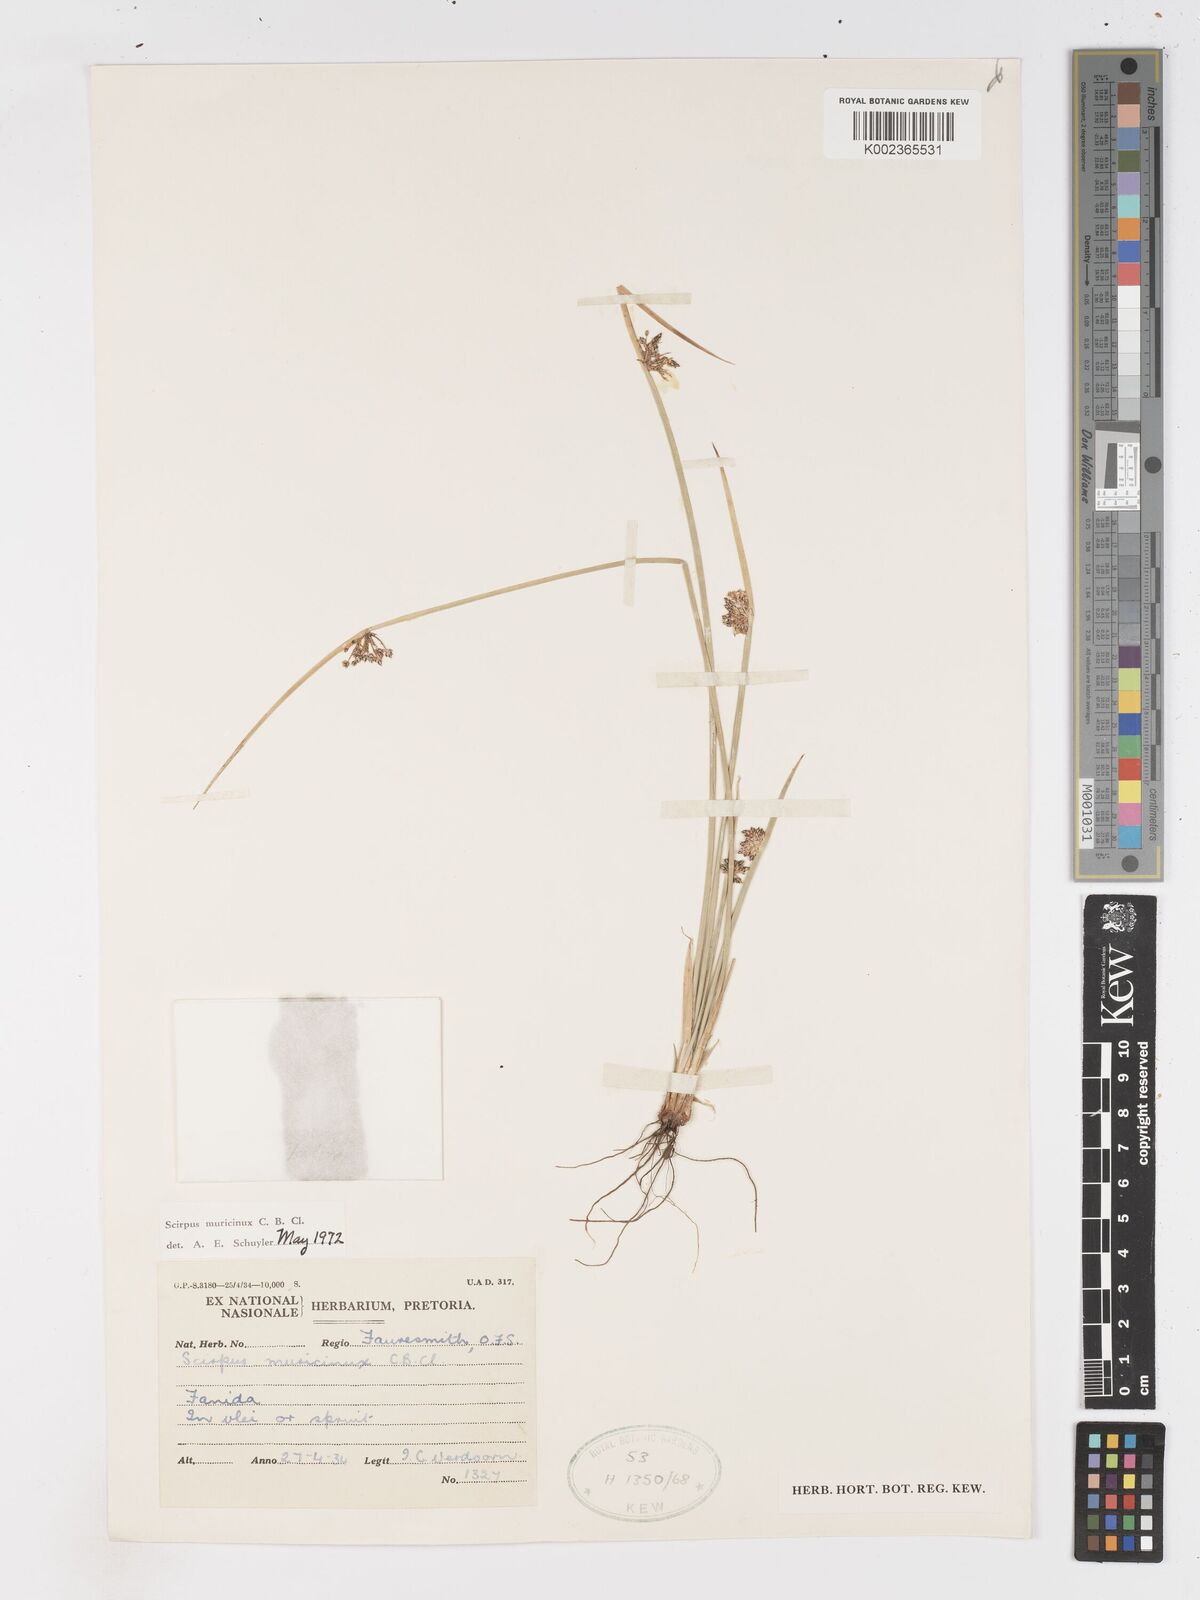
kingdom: Plantae
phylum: Tracheophyta
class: Liliopsida
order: Poales
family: Cyperaceae
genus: Schoenoplectiella
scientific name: Schoenoplectiella muricinux
